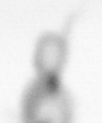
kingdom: Animalia
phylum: Arthropoda
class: Copepoda
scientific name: Copepoda
